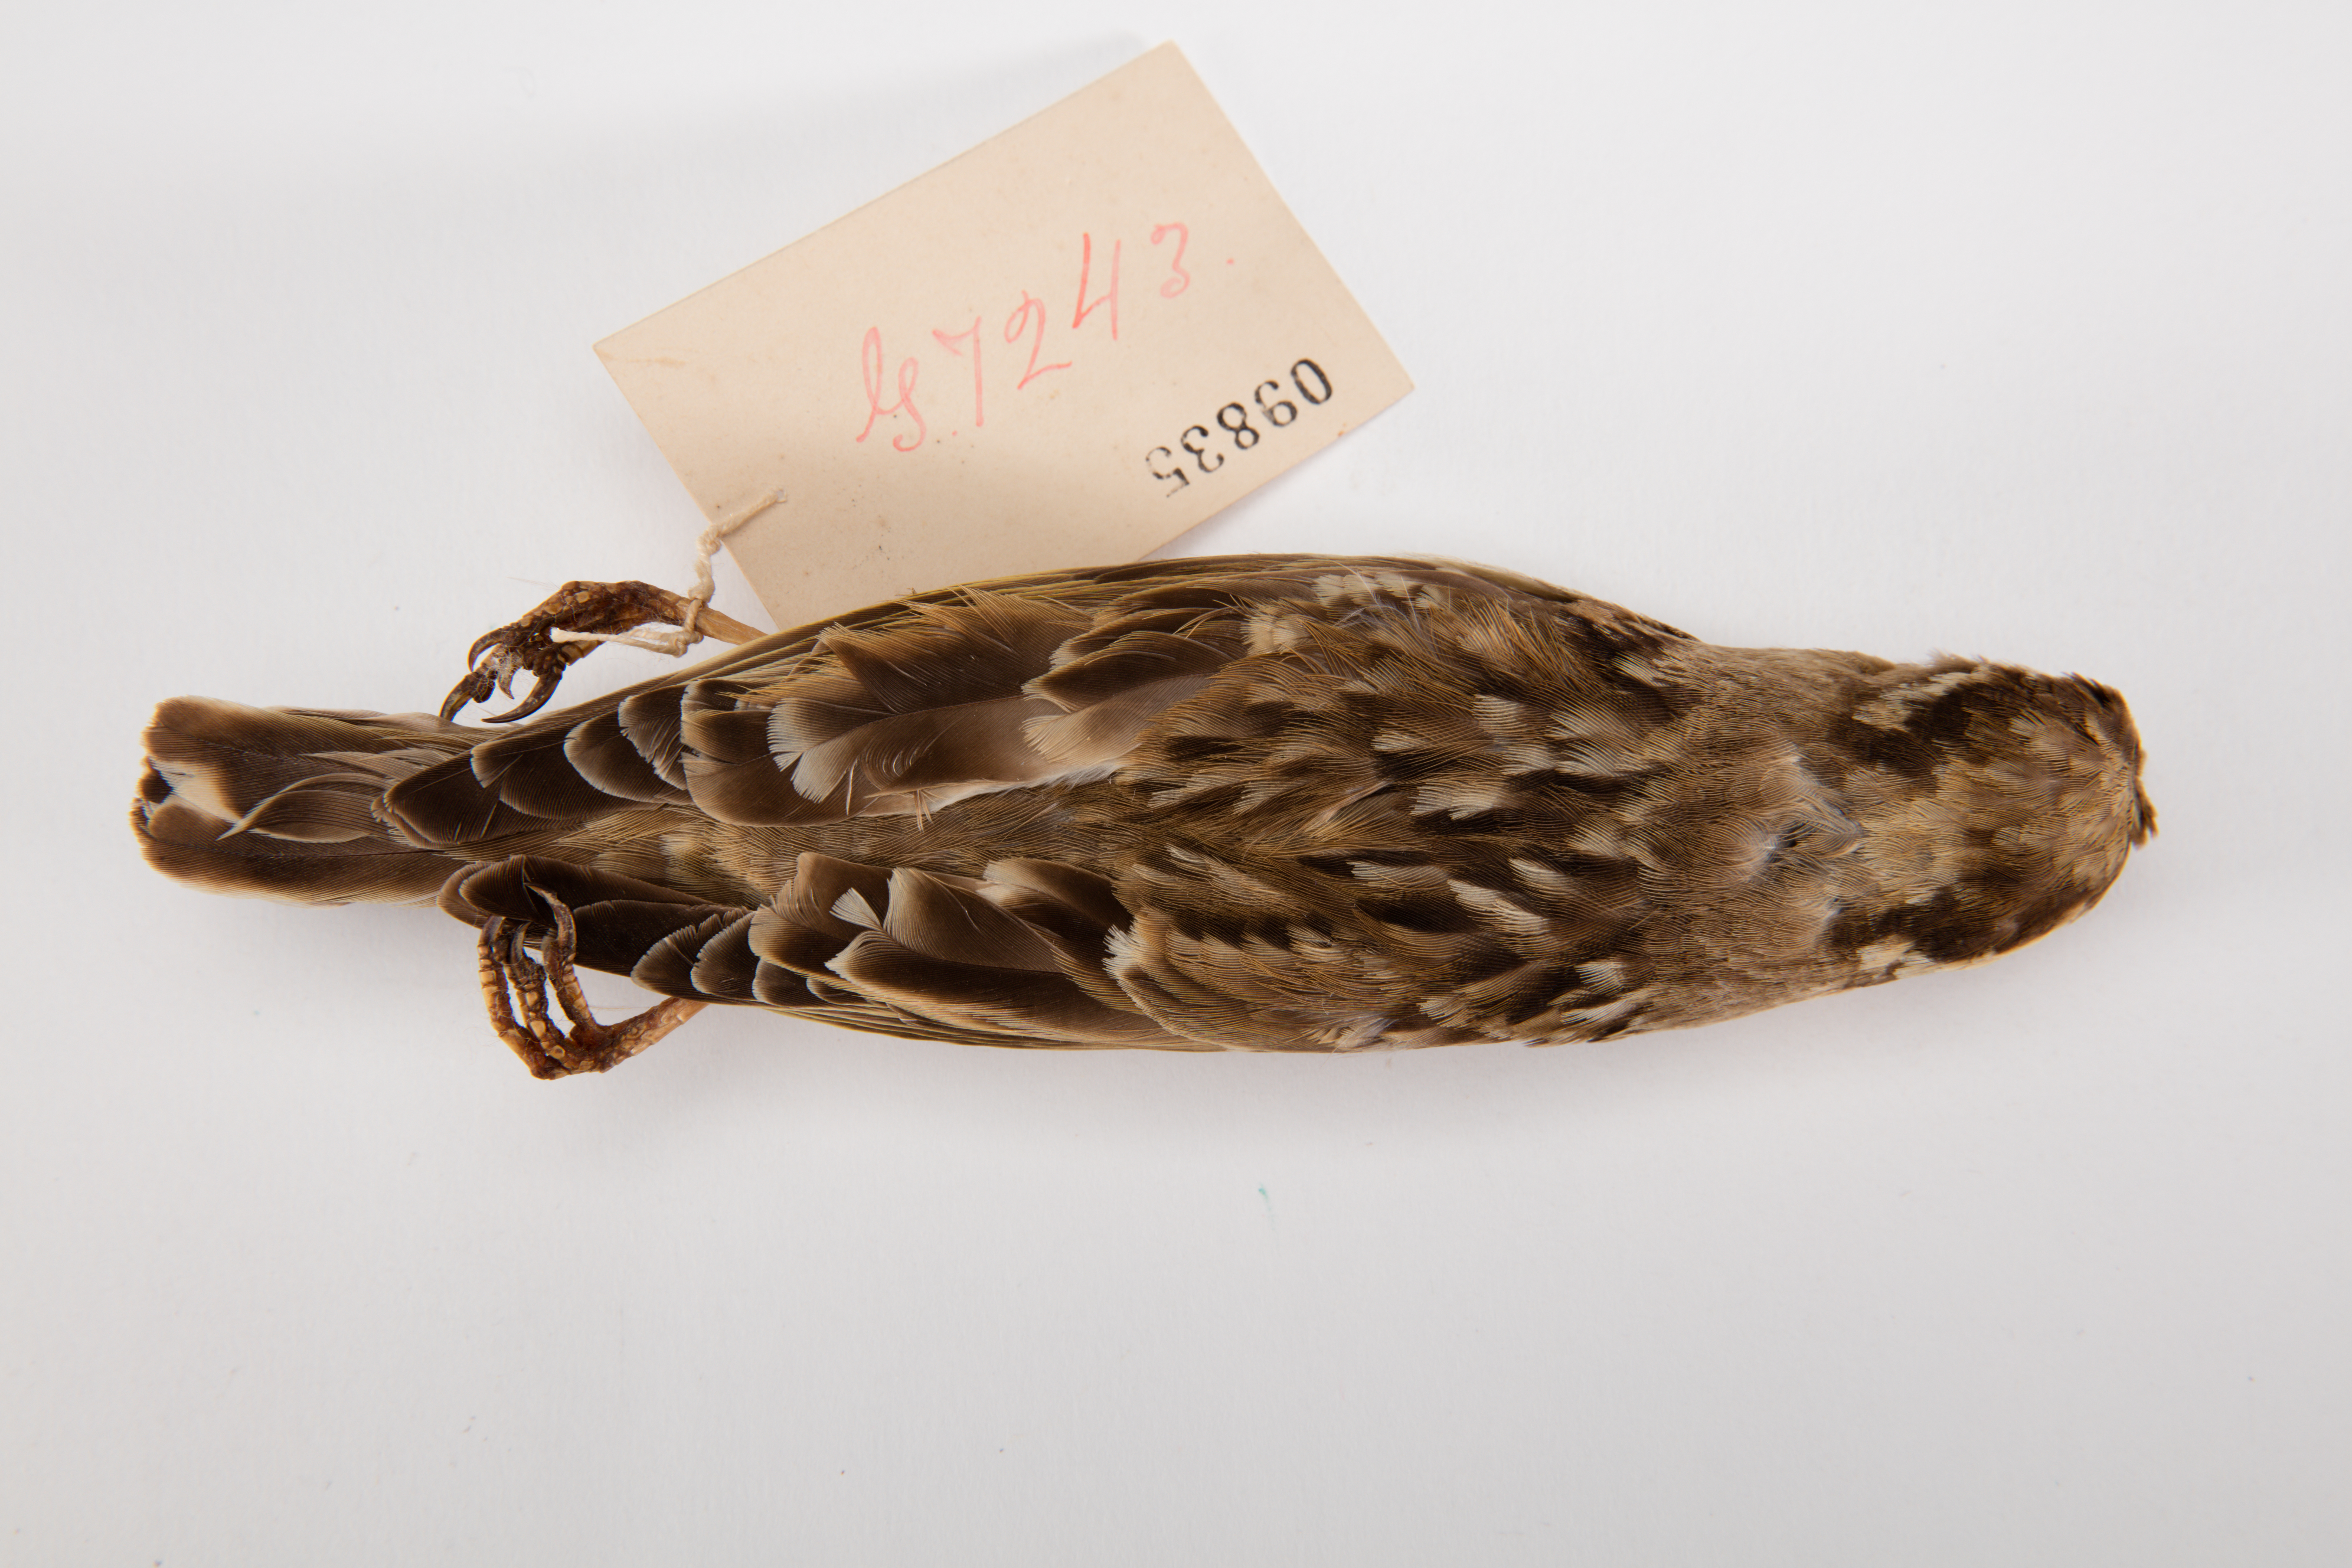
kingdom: Animalia
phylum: Chordata
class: Aves
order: Passeriformes
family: Passeridae
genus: Petronia
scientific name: Petronia petronia
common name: Rock sparrow
